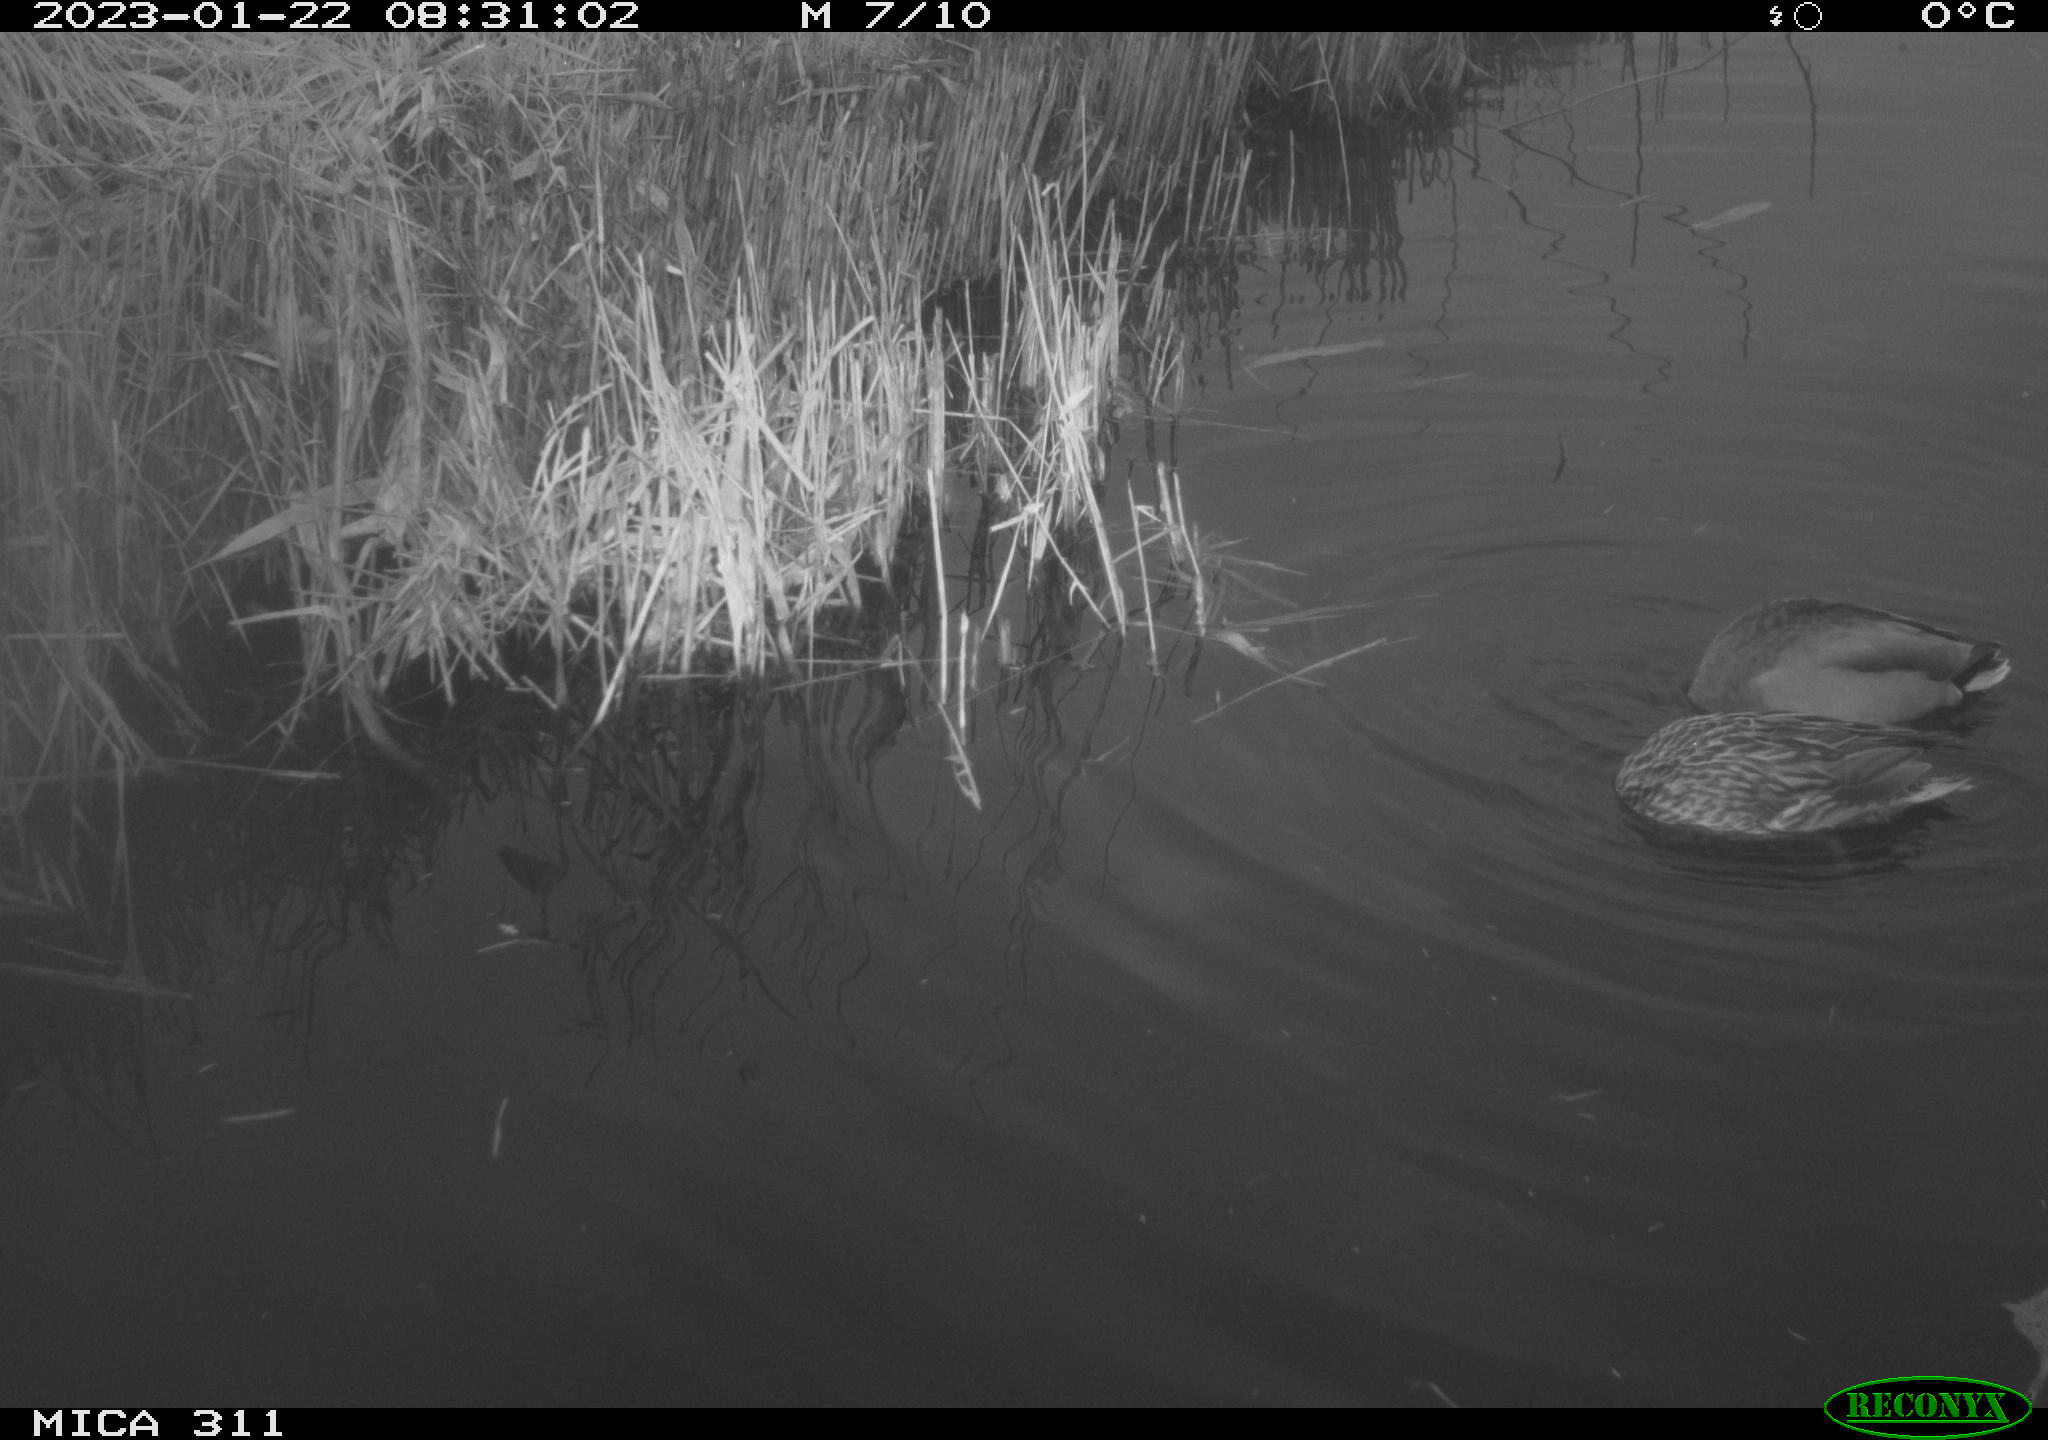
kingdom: Animalia
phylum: Chordata
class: Aves
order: Anseriformes
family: Anatidae
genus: Anas
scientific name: Anas
